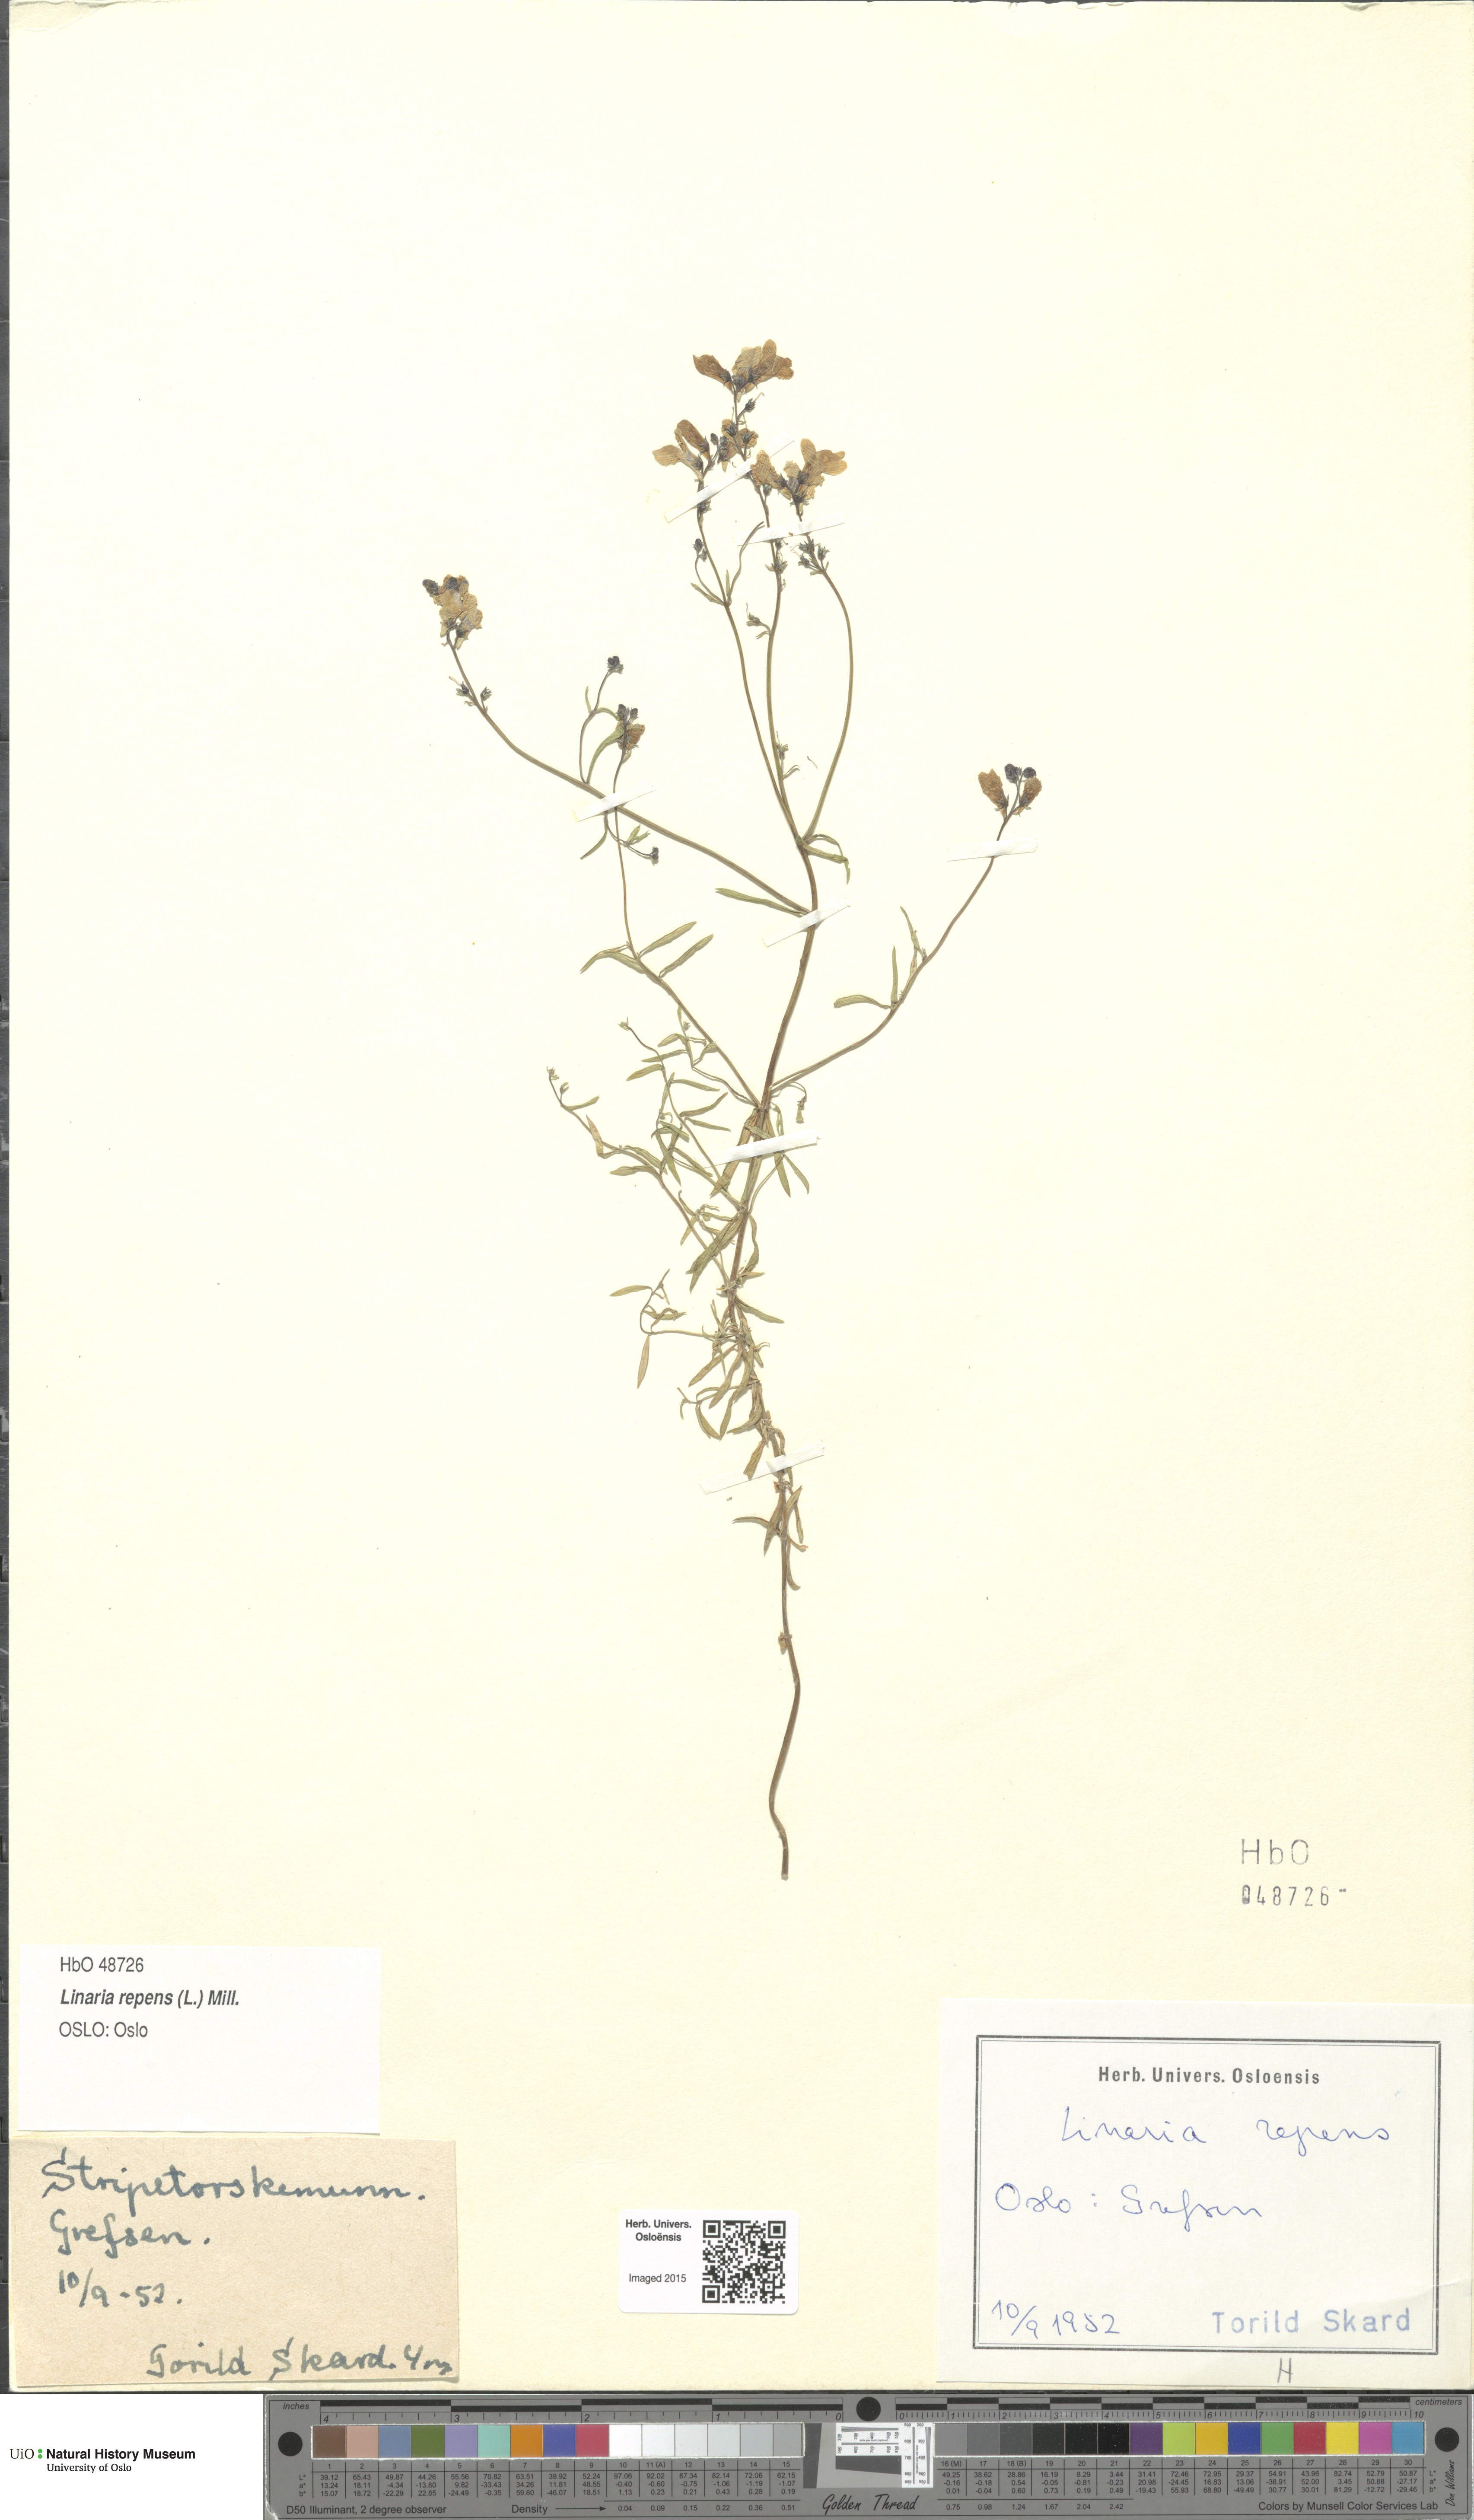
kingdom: Plantae
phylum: Tracheophyta
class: Magnoliopsida
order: Lamiales
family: Plantaginaceae
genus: Linaria
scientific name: Linaria repens
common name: Pale toadflax
